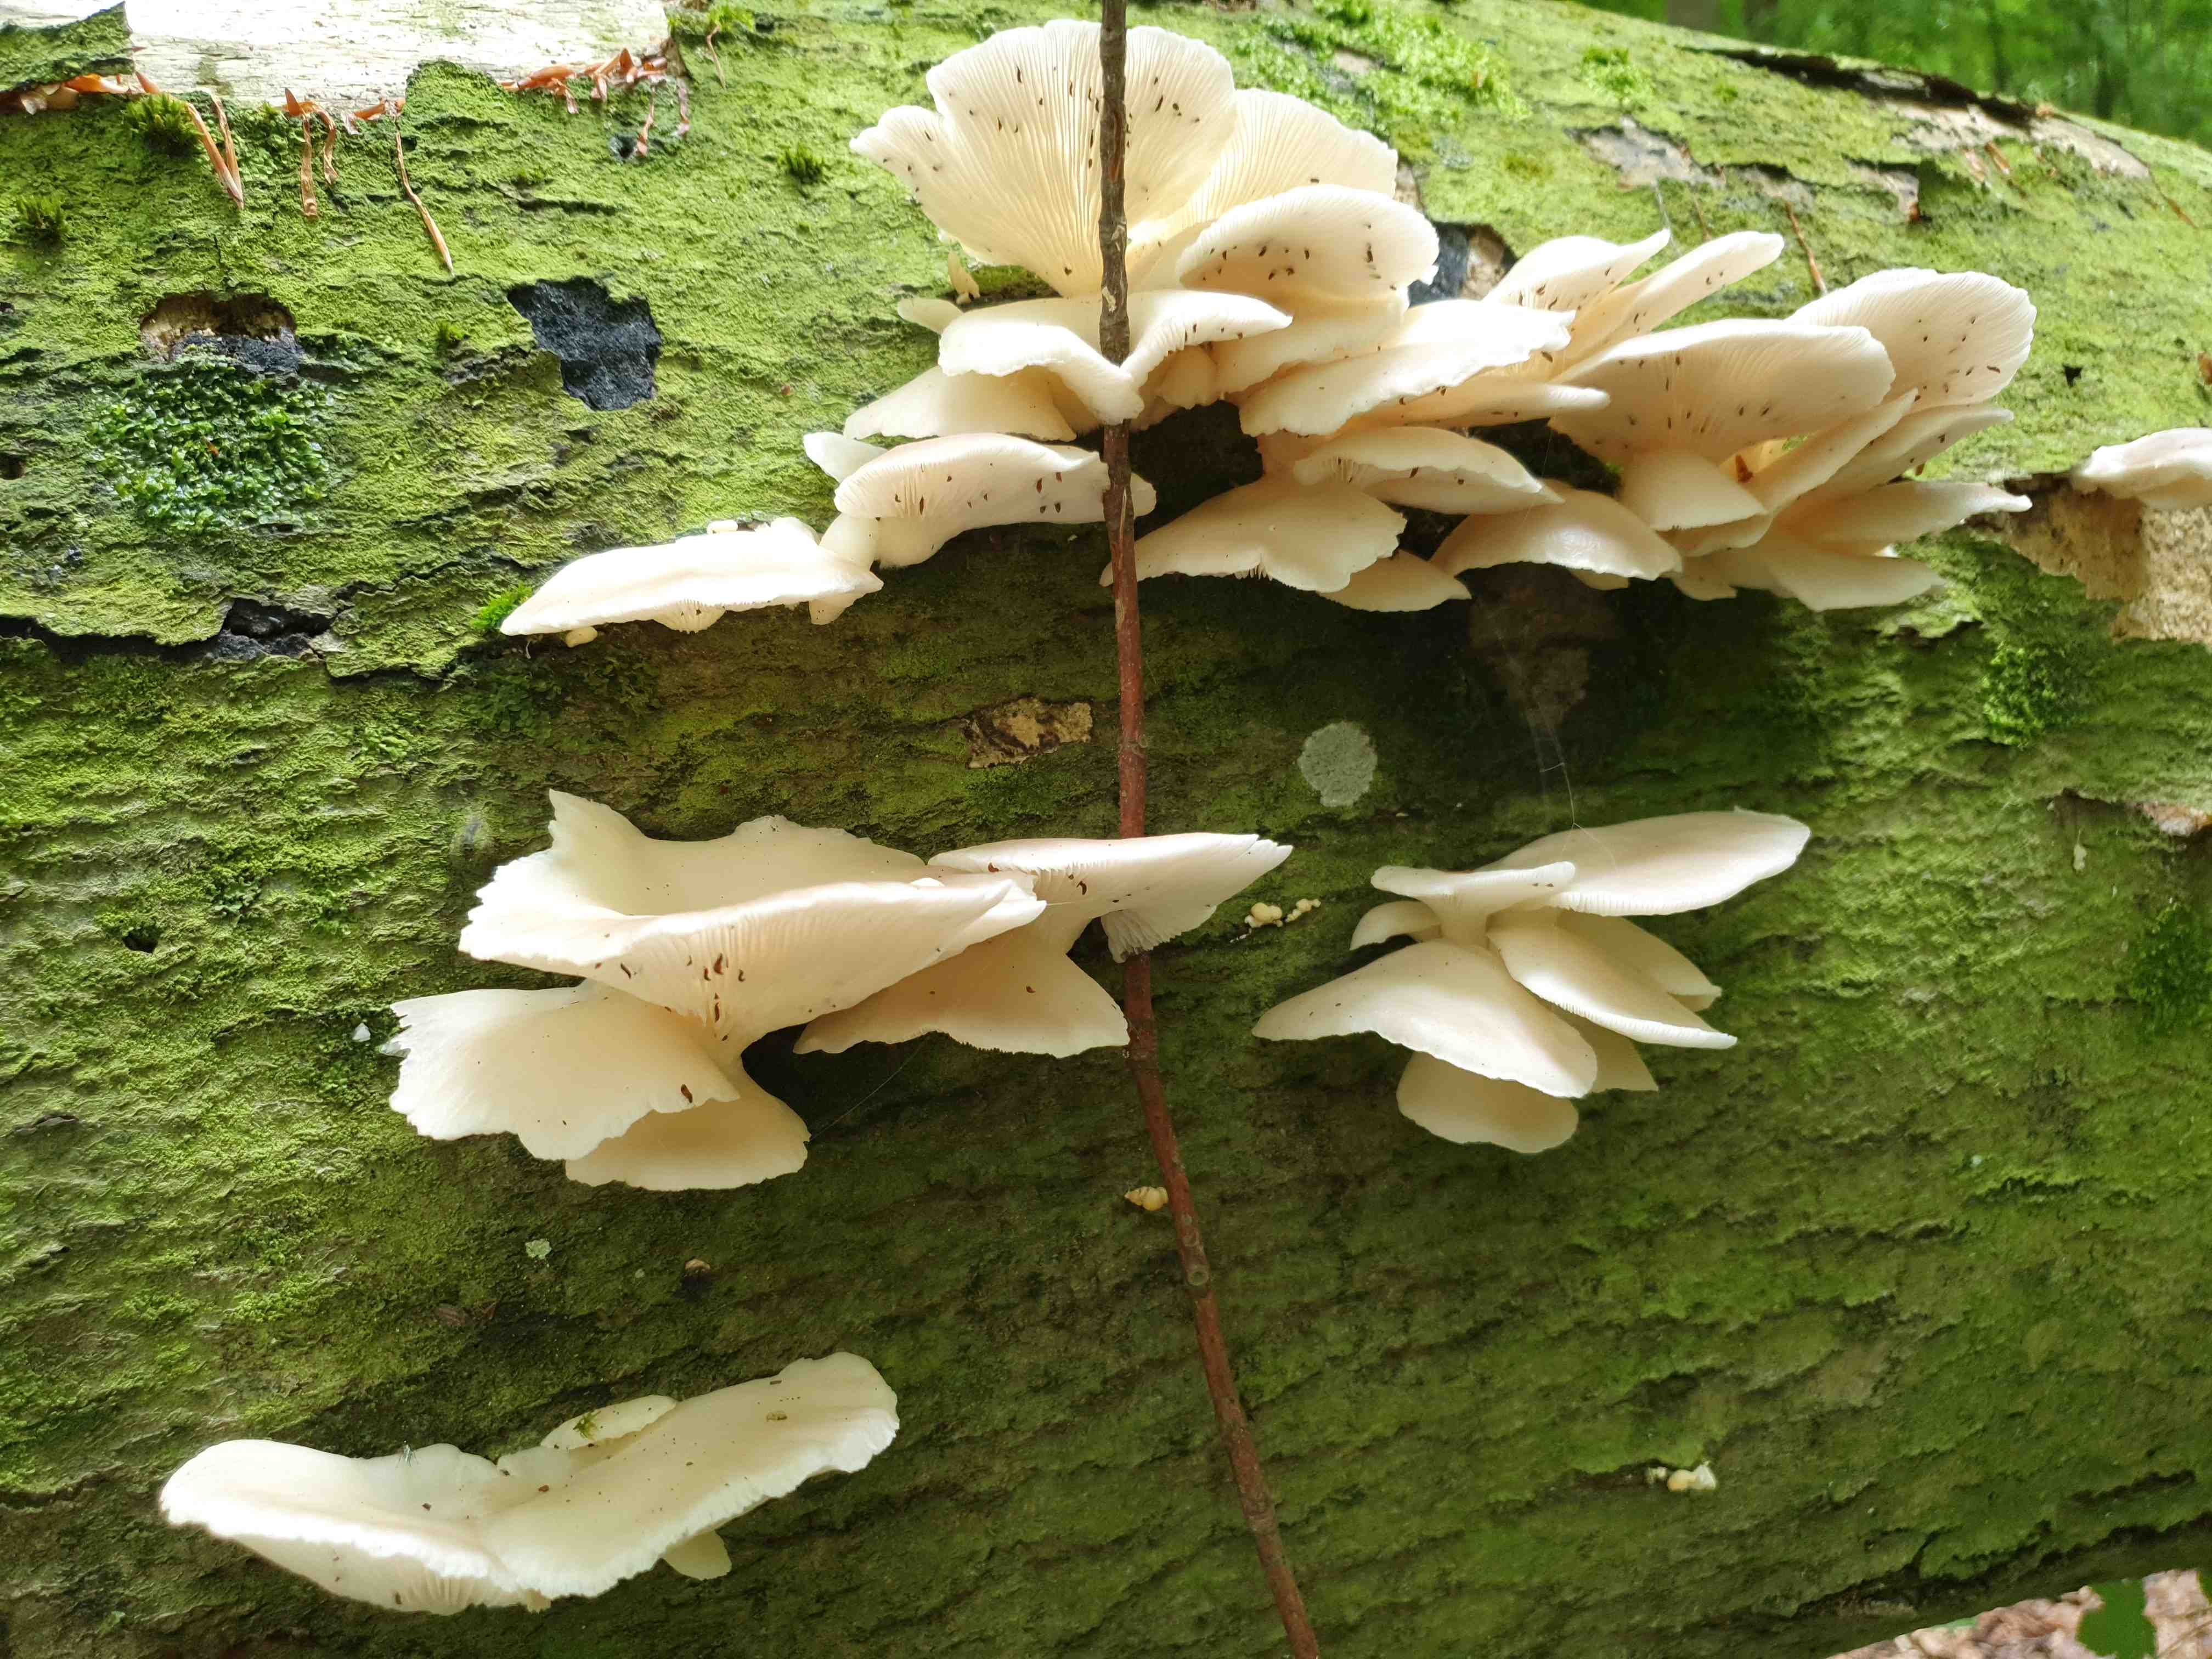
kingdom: Fungi
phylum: Basidiomycota
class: Agaricomycetes
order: Agaricales
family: Pleurotaceae
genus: Pleurotus
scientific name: Pleurotus pulmonarius
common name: sommer-østershat
